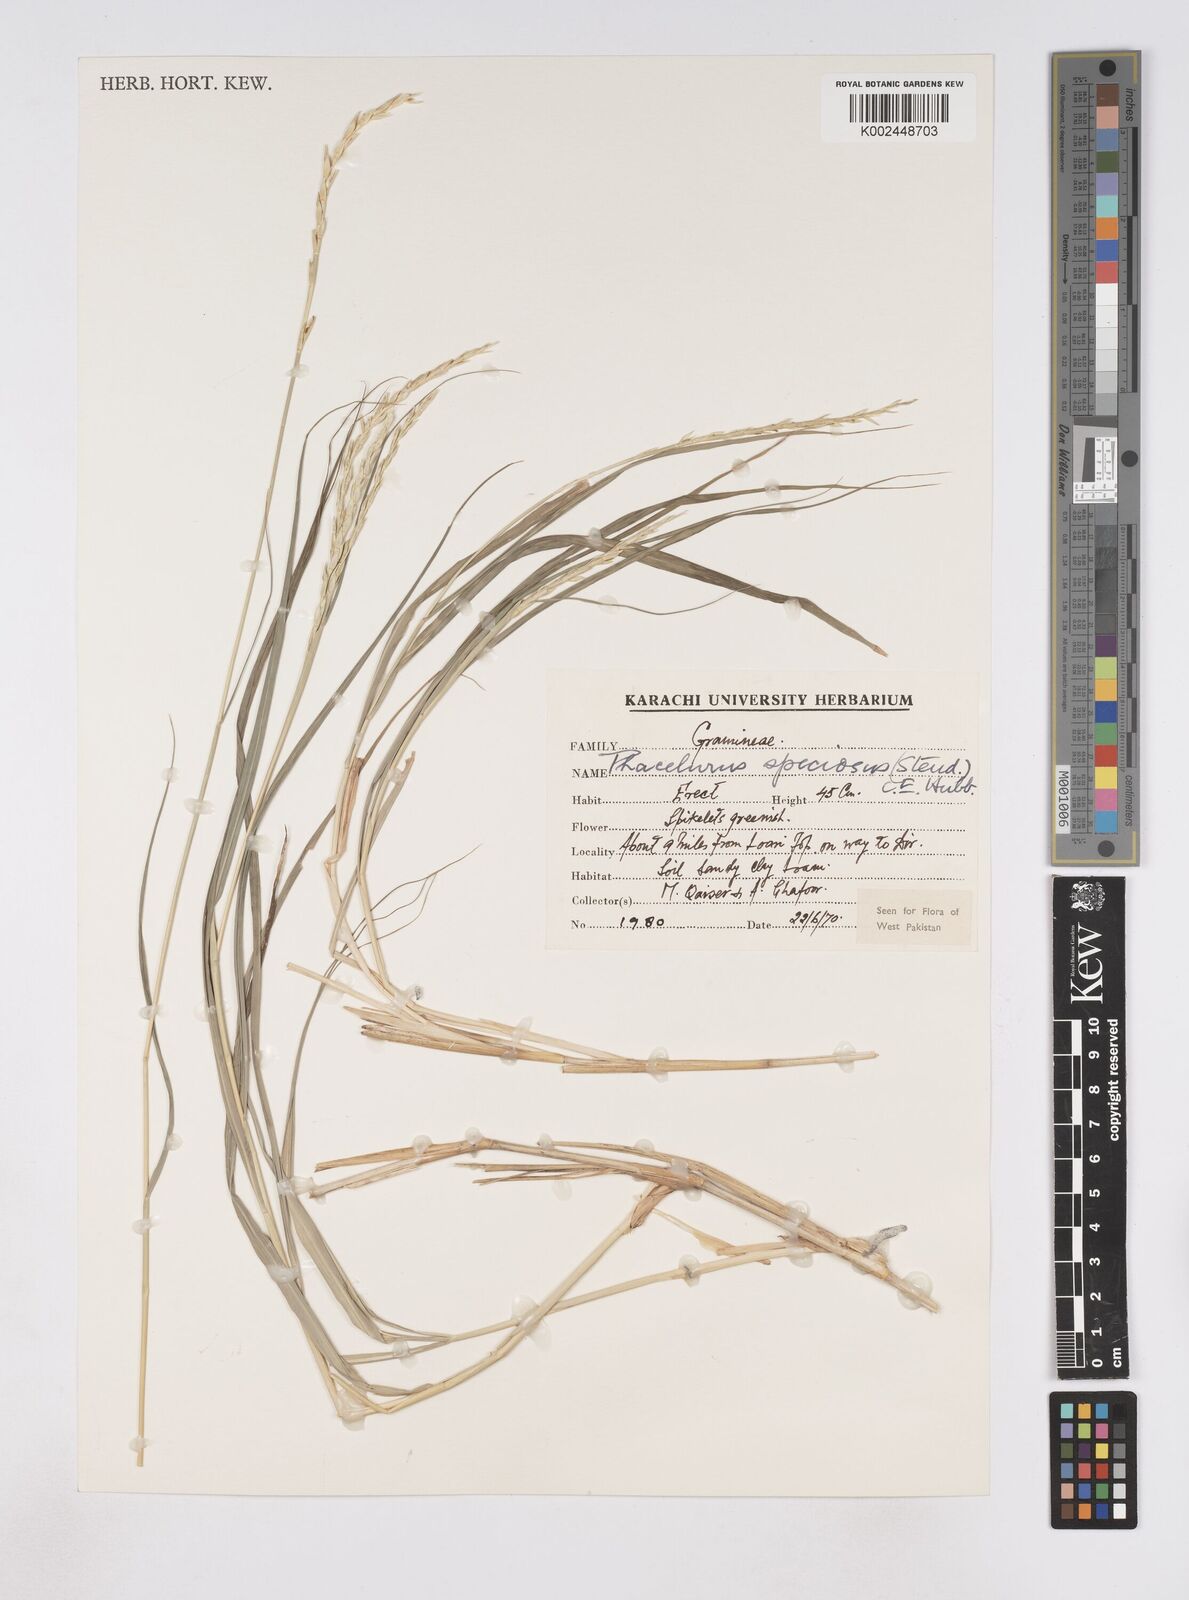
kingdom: Plantae
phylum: Tracheophyta
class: Liliopsida
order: Poales
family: Poaceae
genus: Phacelurus
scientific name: Phacelurus speciosus
